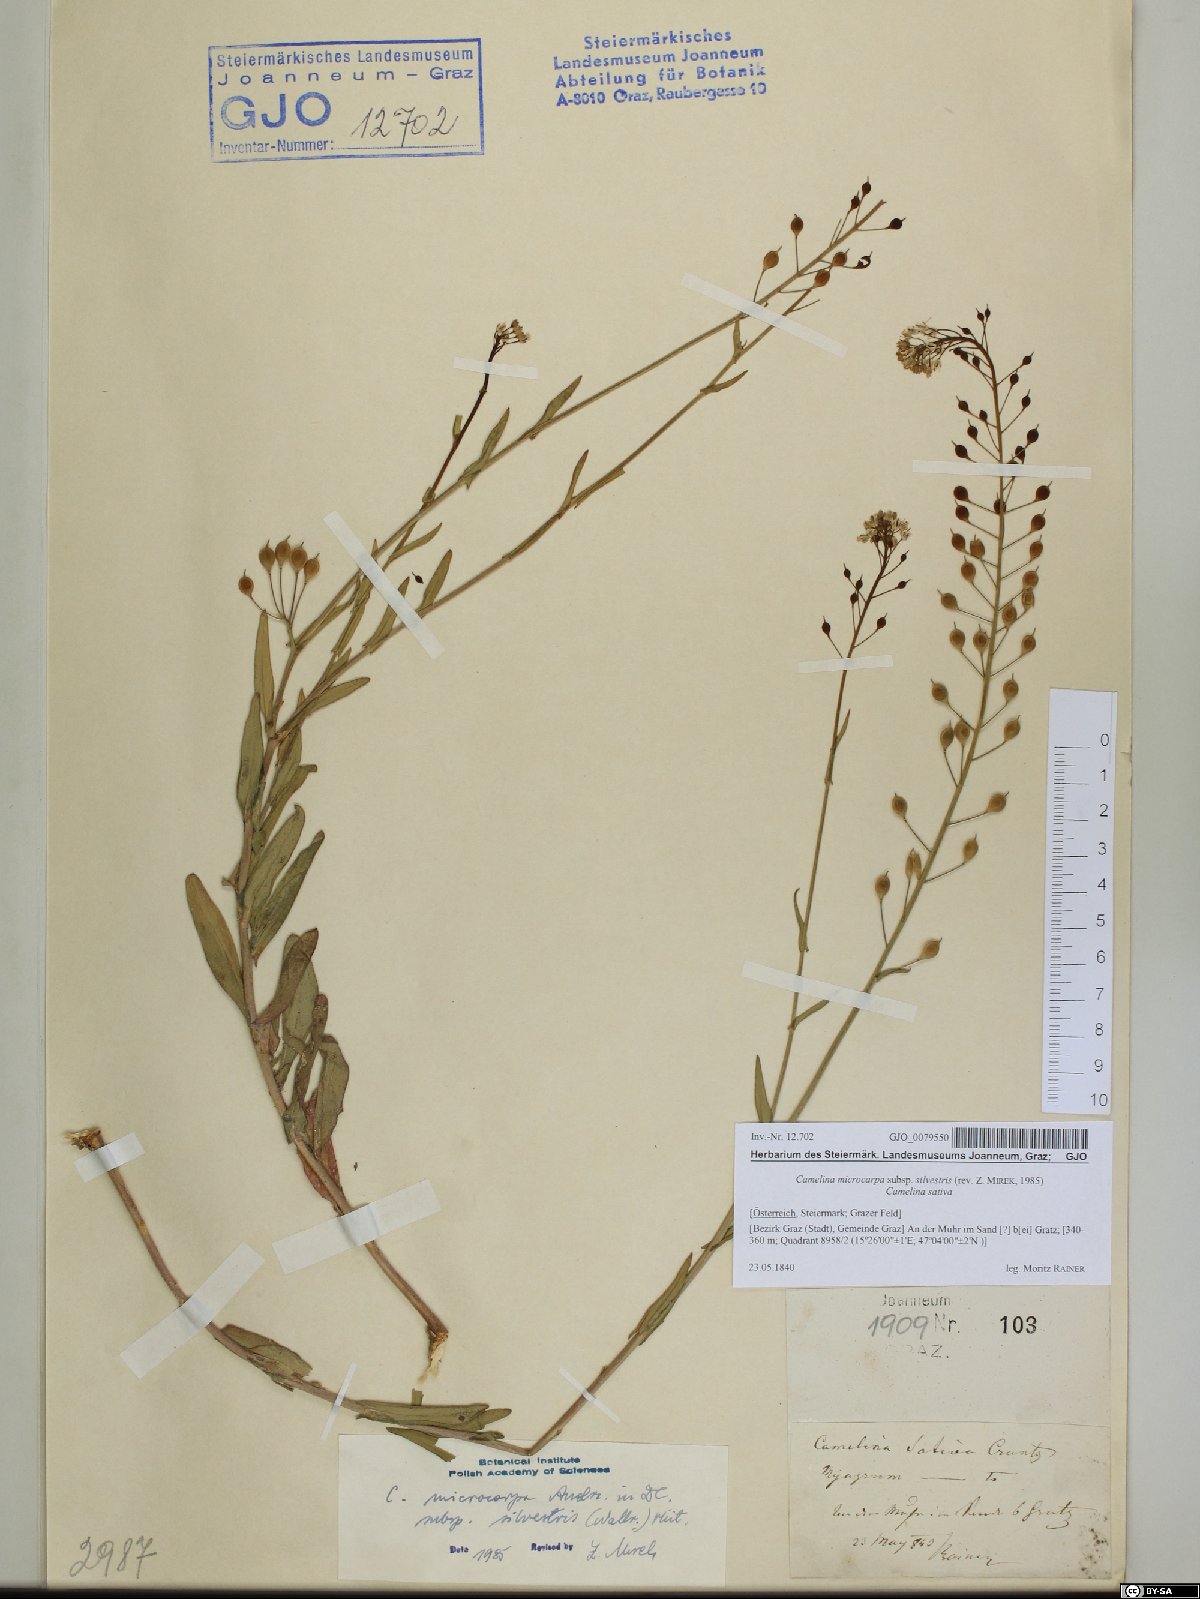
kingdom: Plantae
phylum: Tracheophyta
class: Magnoliopsida
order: Brassicales
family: Brassicaceae
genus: Camelina
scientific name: Camelina microcarpa
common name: Lesser gold-of-pleasure
